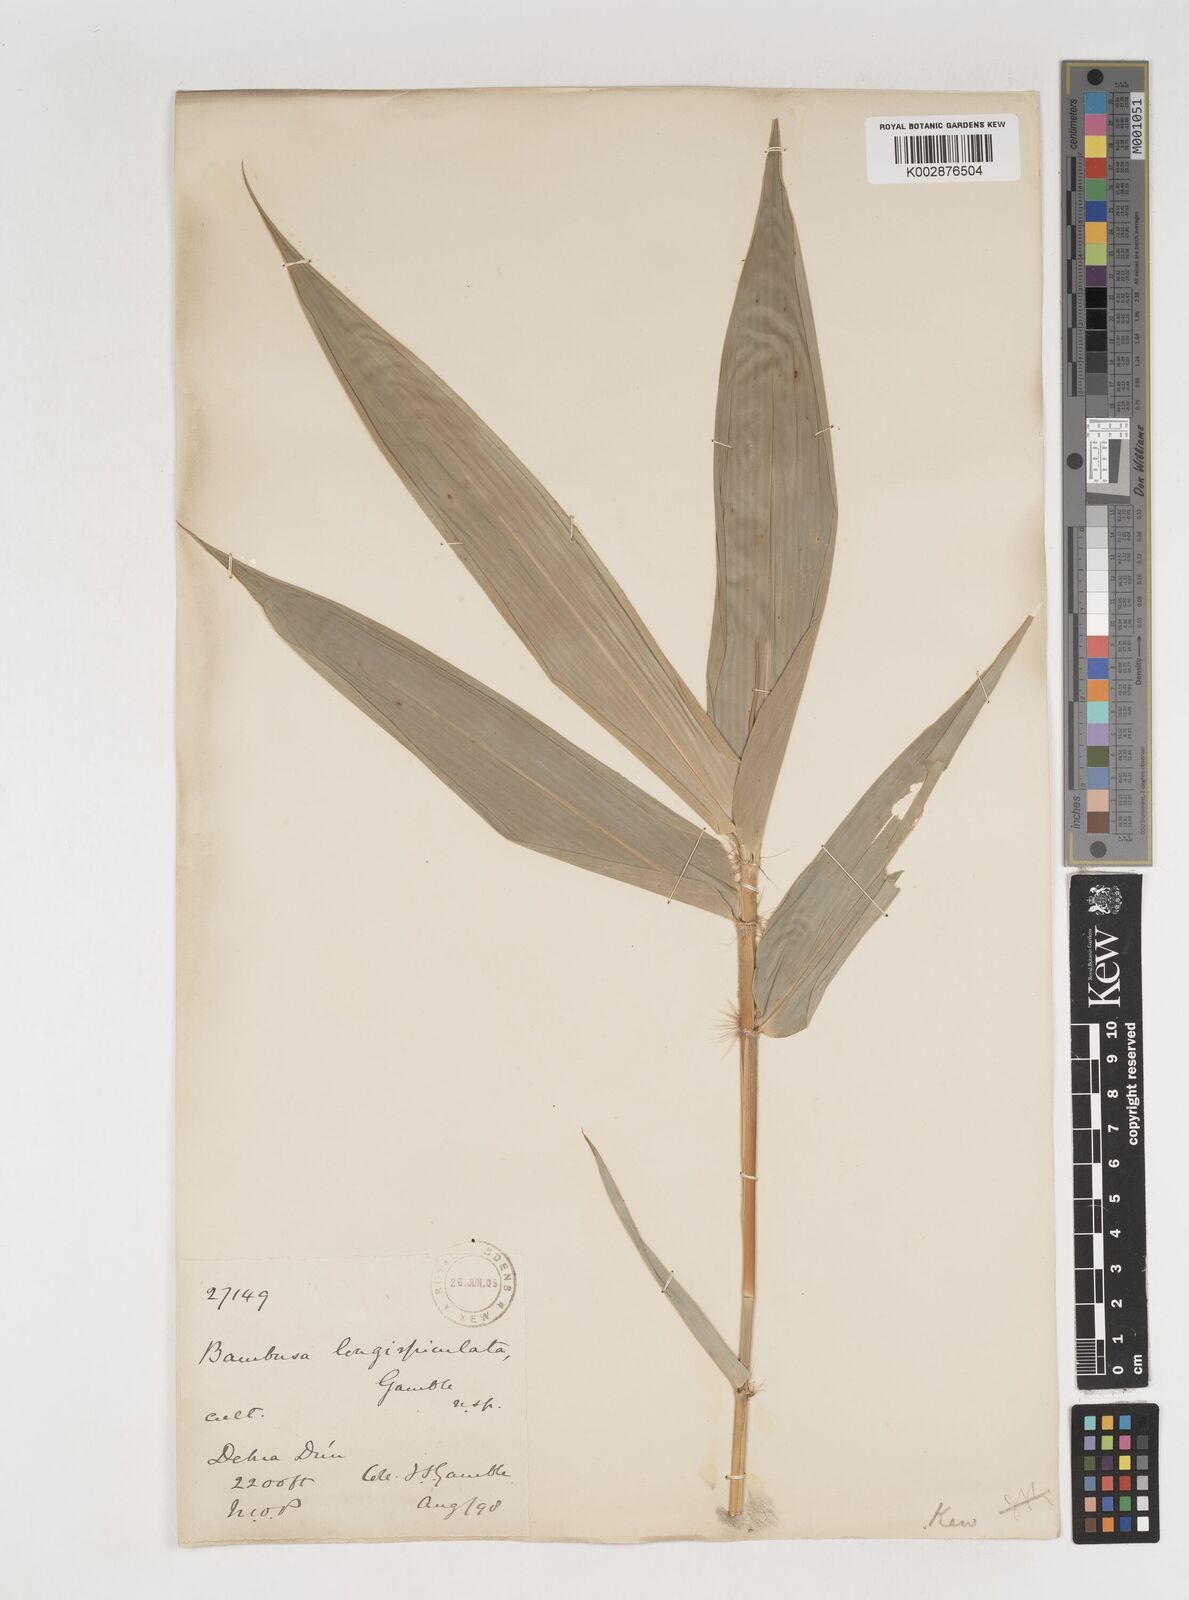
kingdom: Plantae
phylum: Tracheophyta
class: Liliopsida
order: Poales
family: Poaceae
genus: Bambusa
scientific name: Bambusa longispiculata
